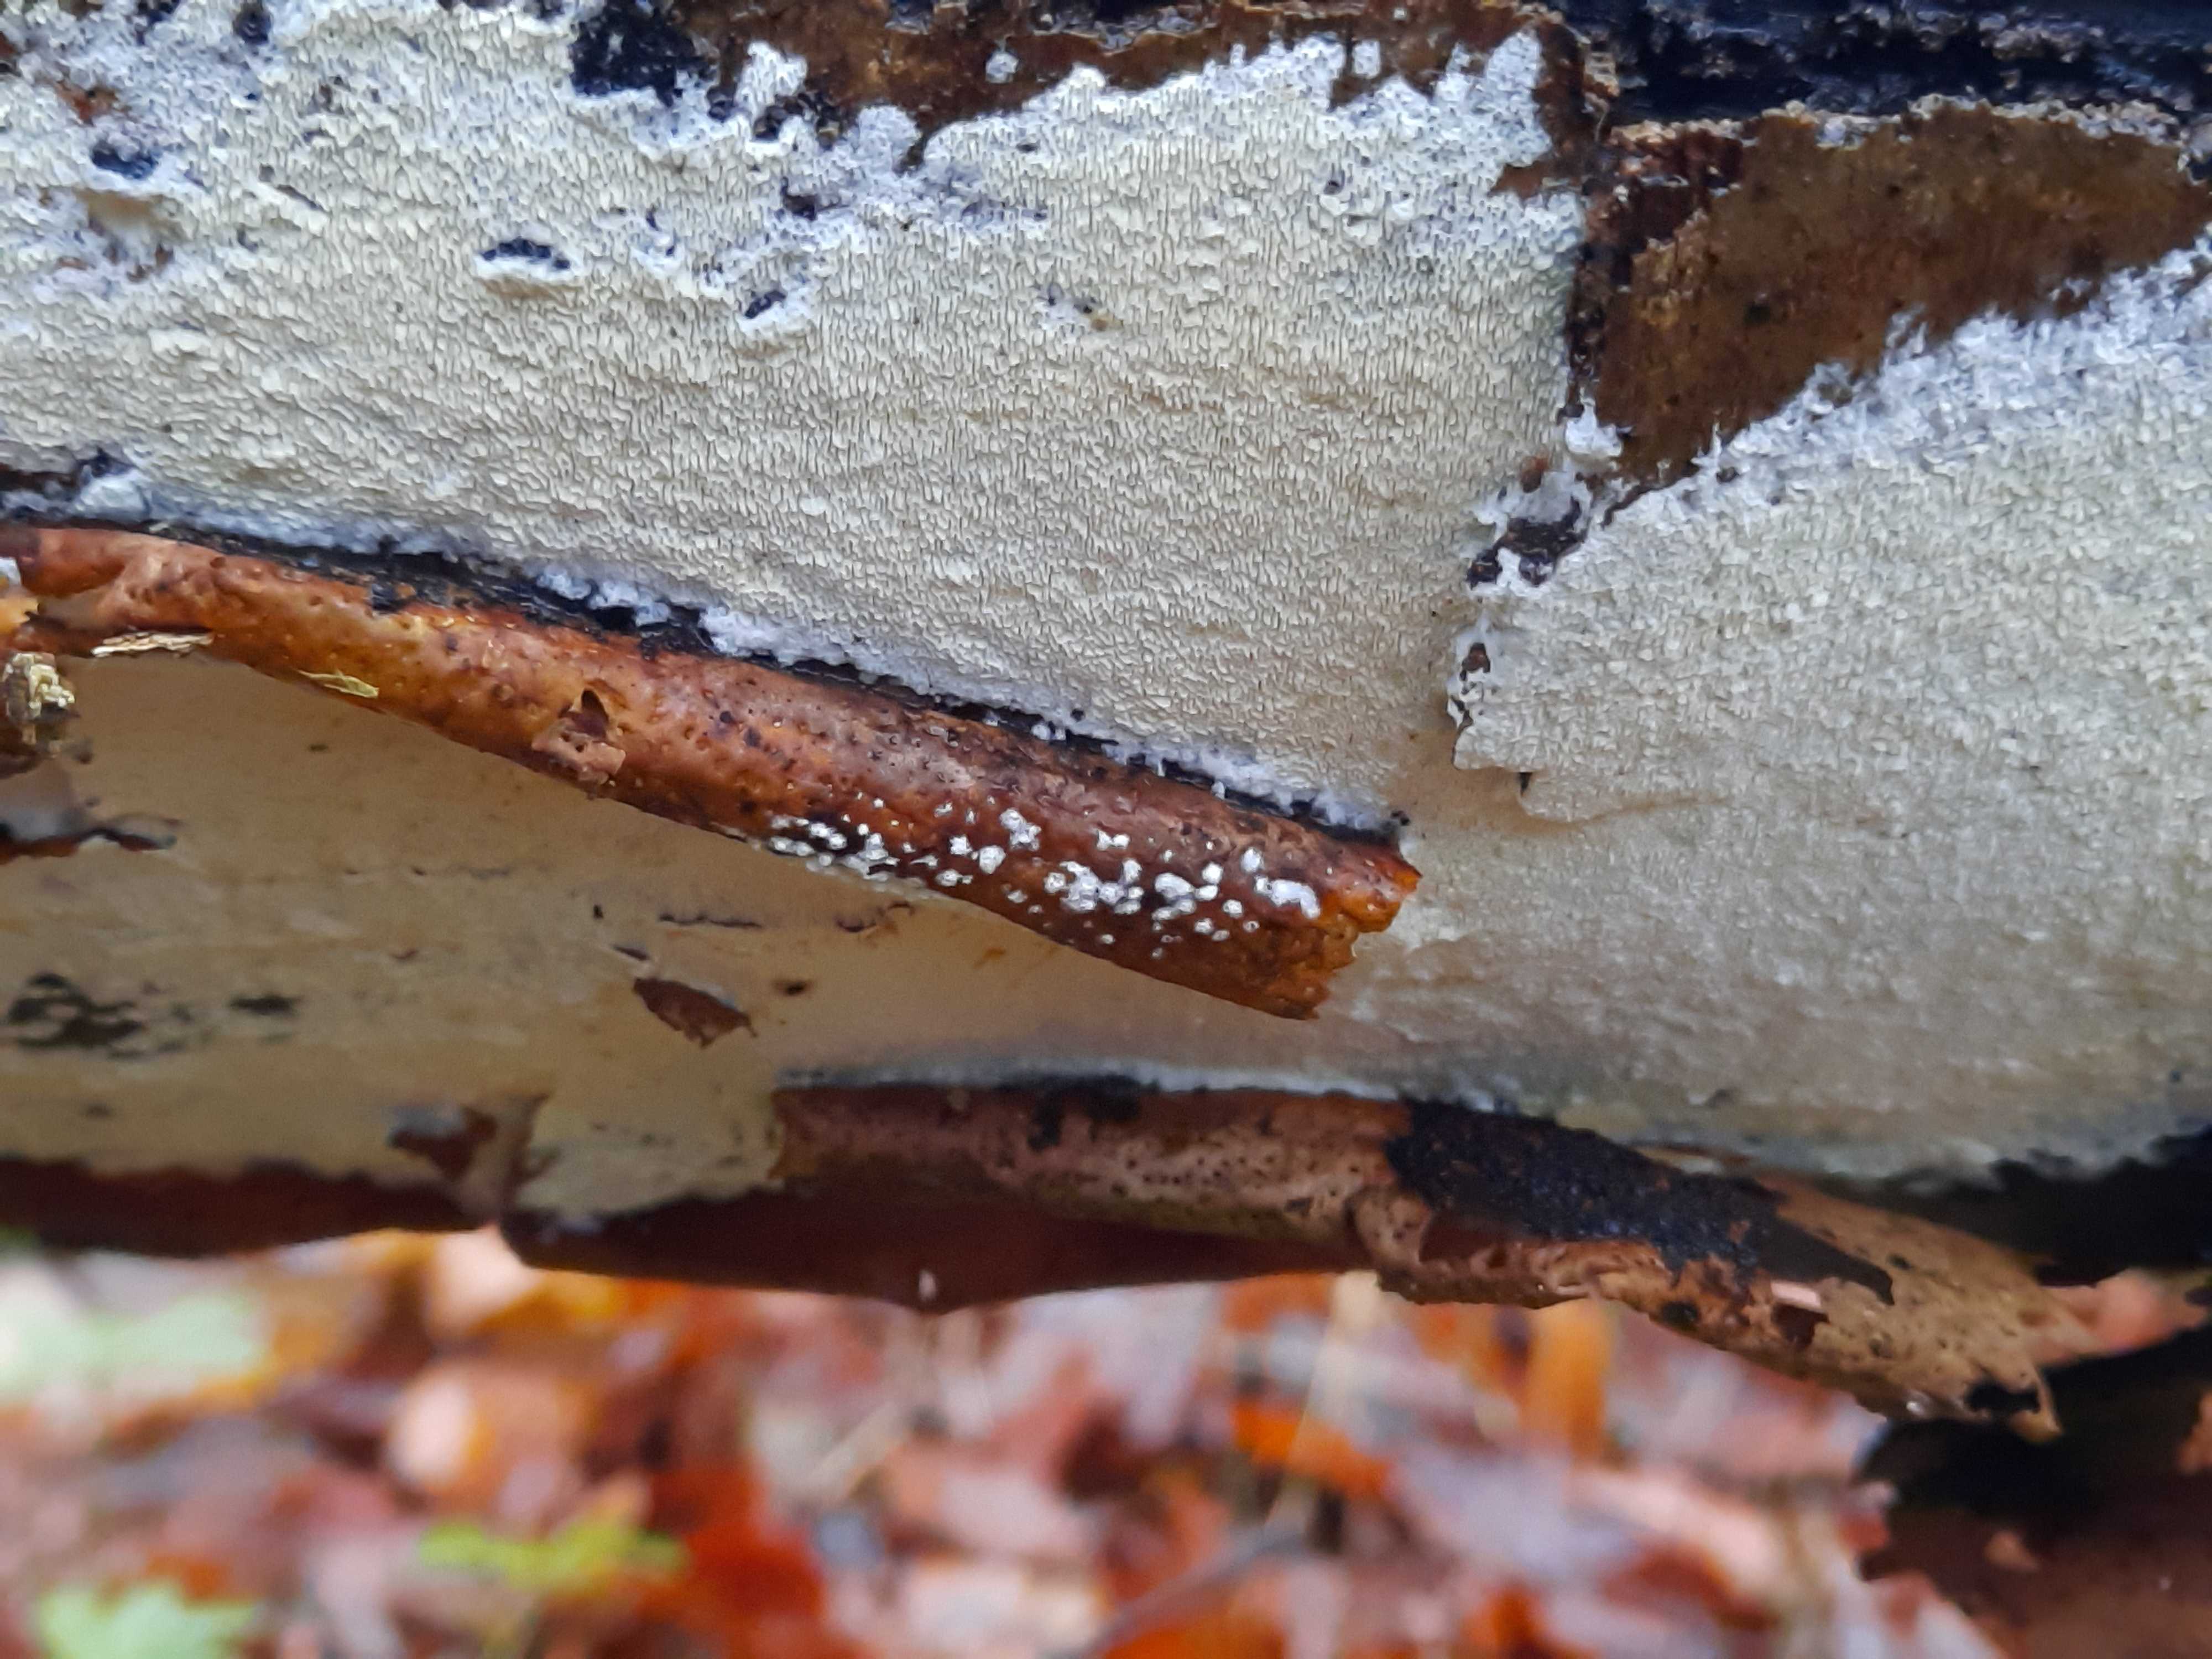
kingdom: Fungi
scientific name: Fungi
